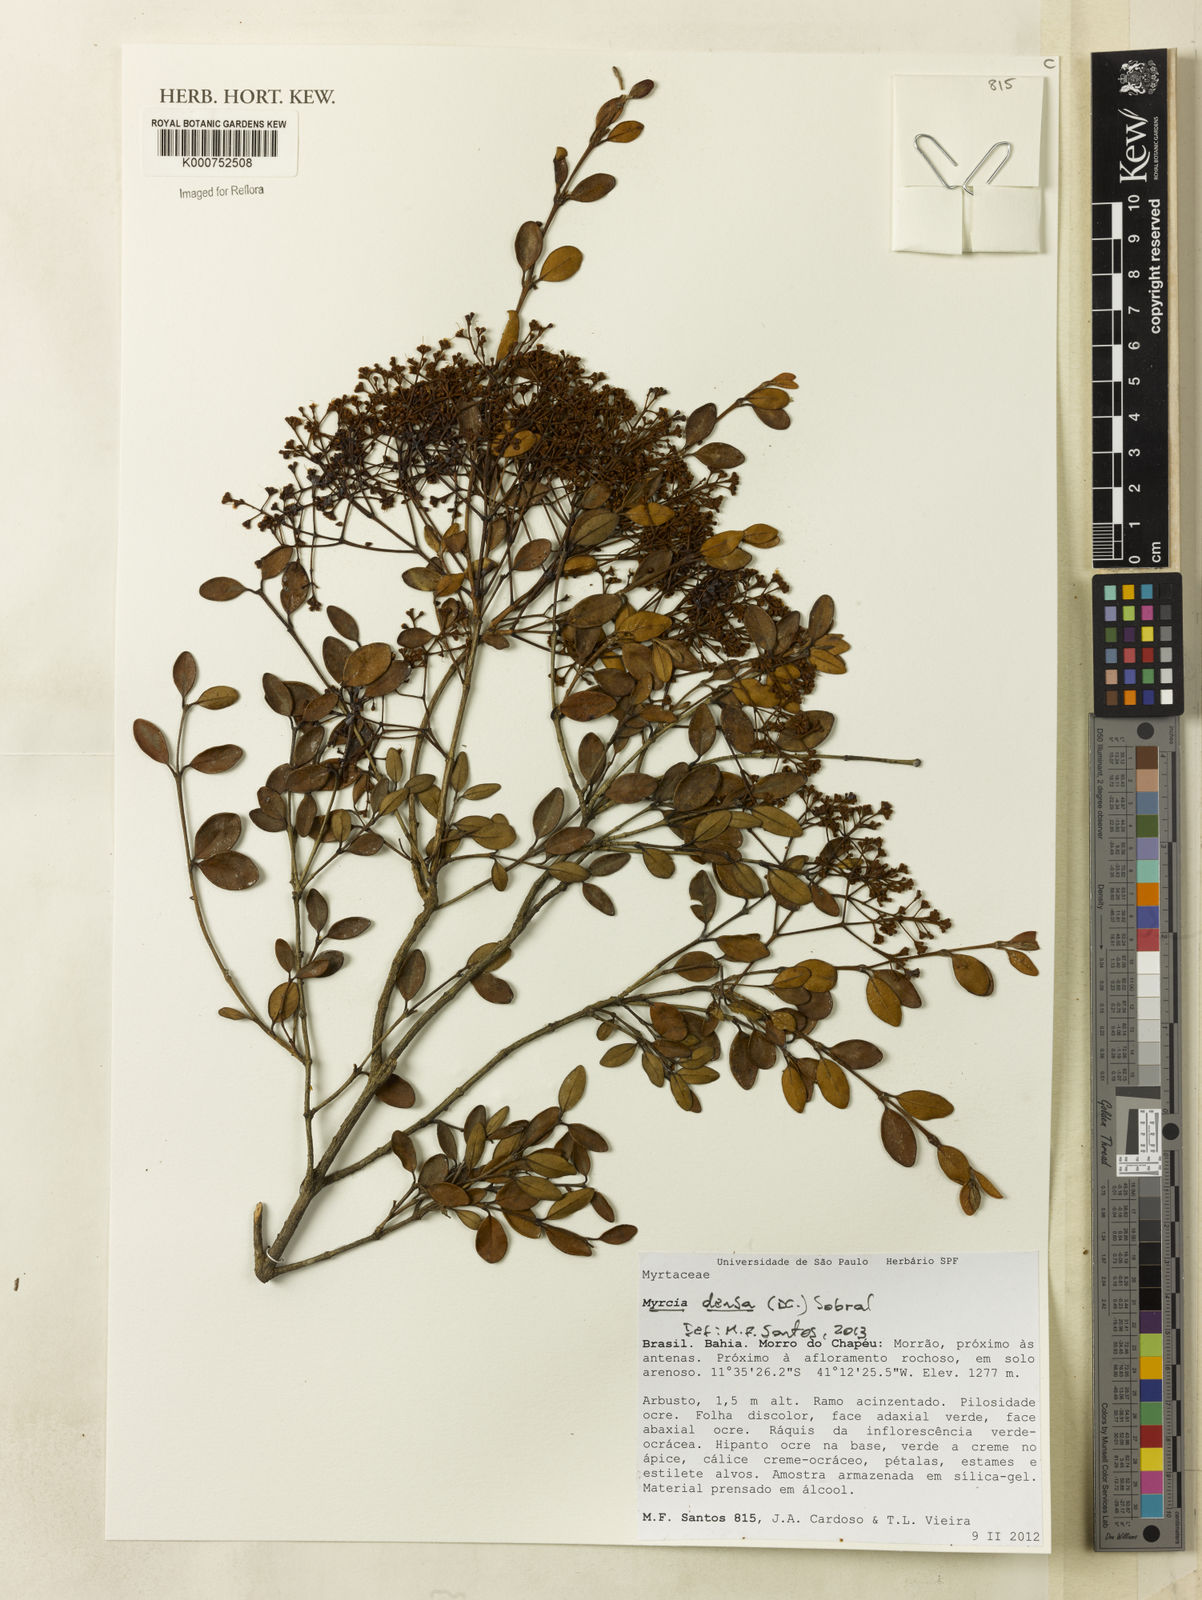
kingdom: Plantae
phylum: Tracheophyta
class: Magnoliopsida
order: Myrtales
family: Myrtaceae
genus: Myrcia
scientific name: Myrcia densa
